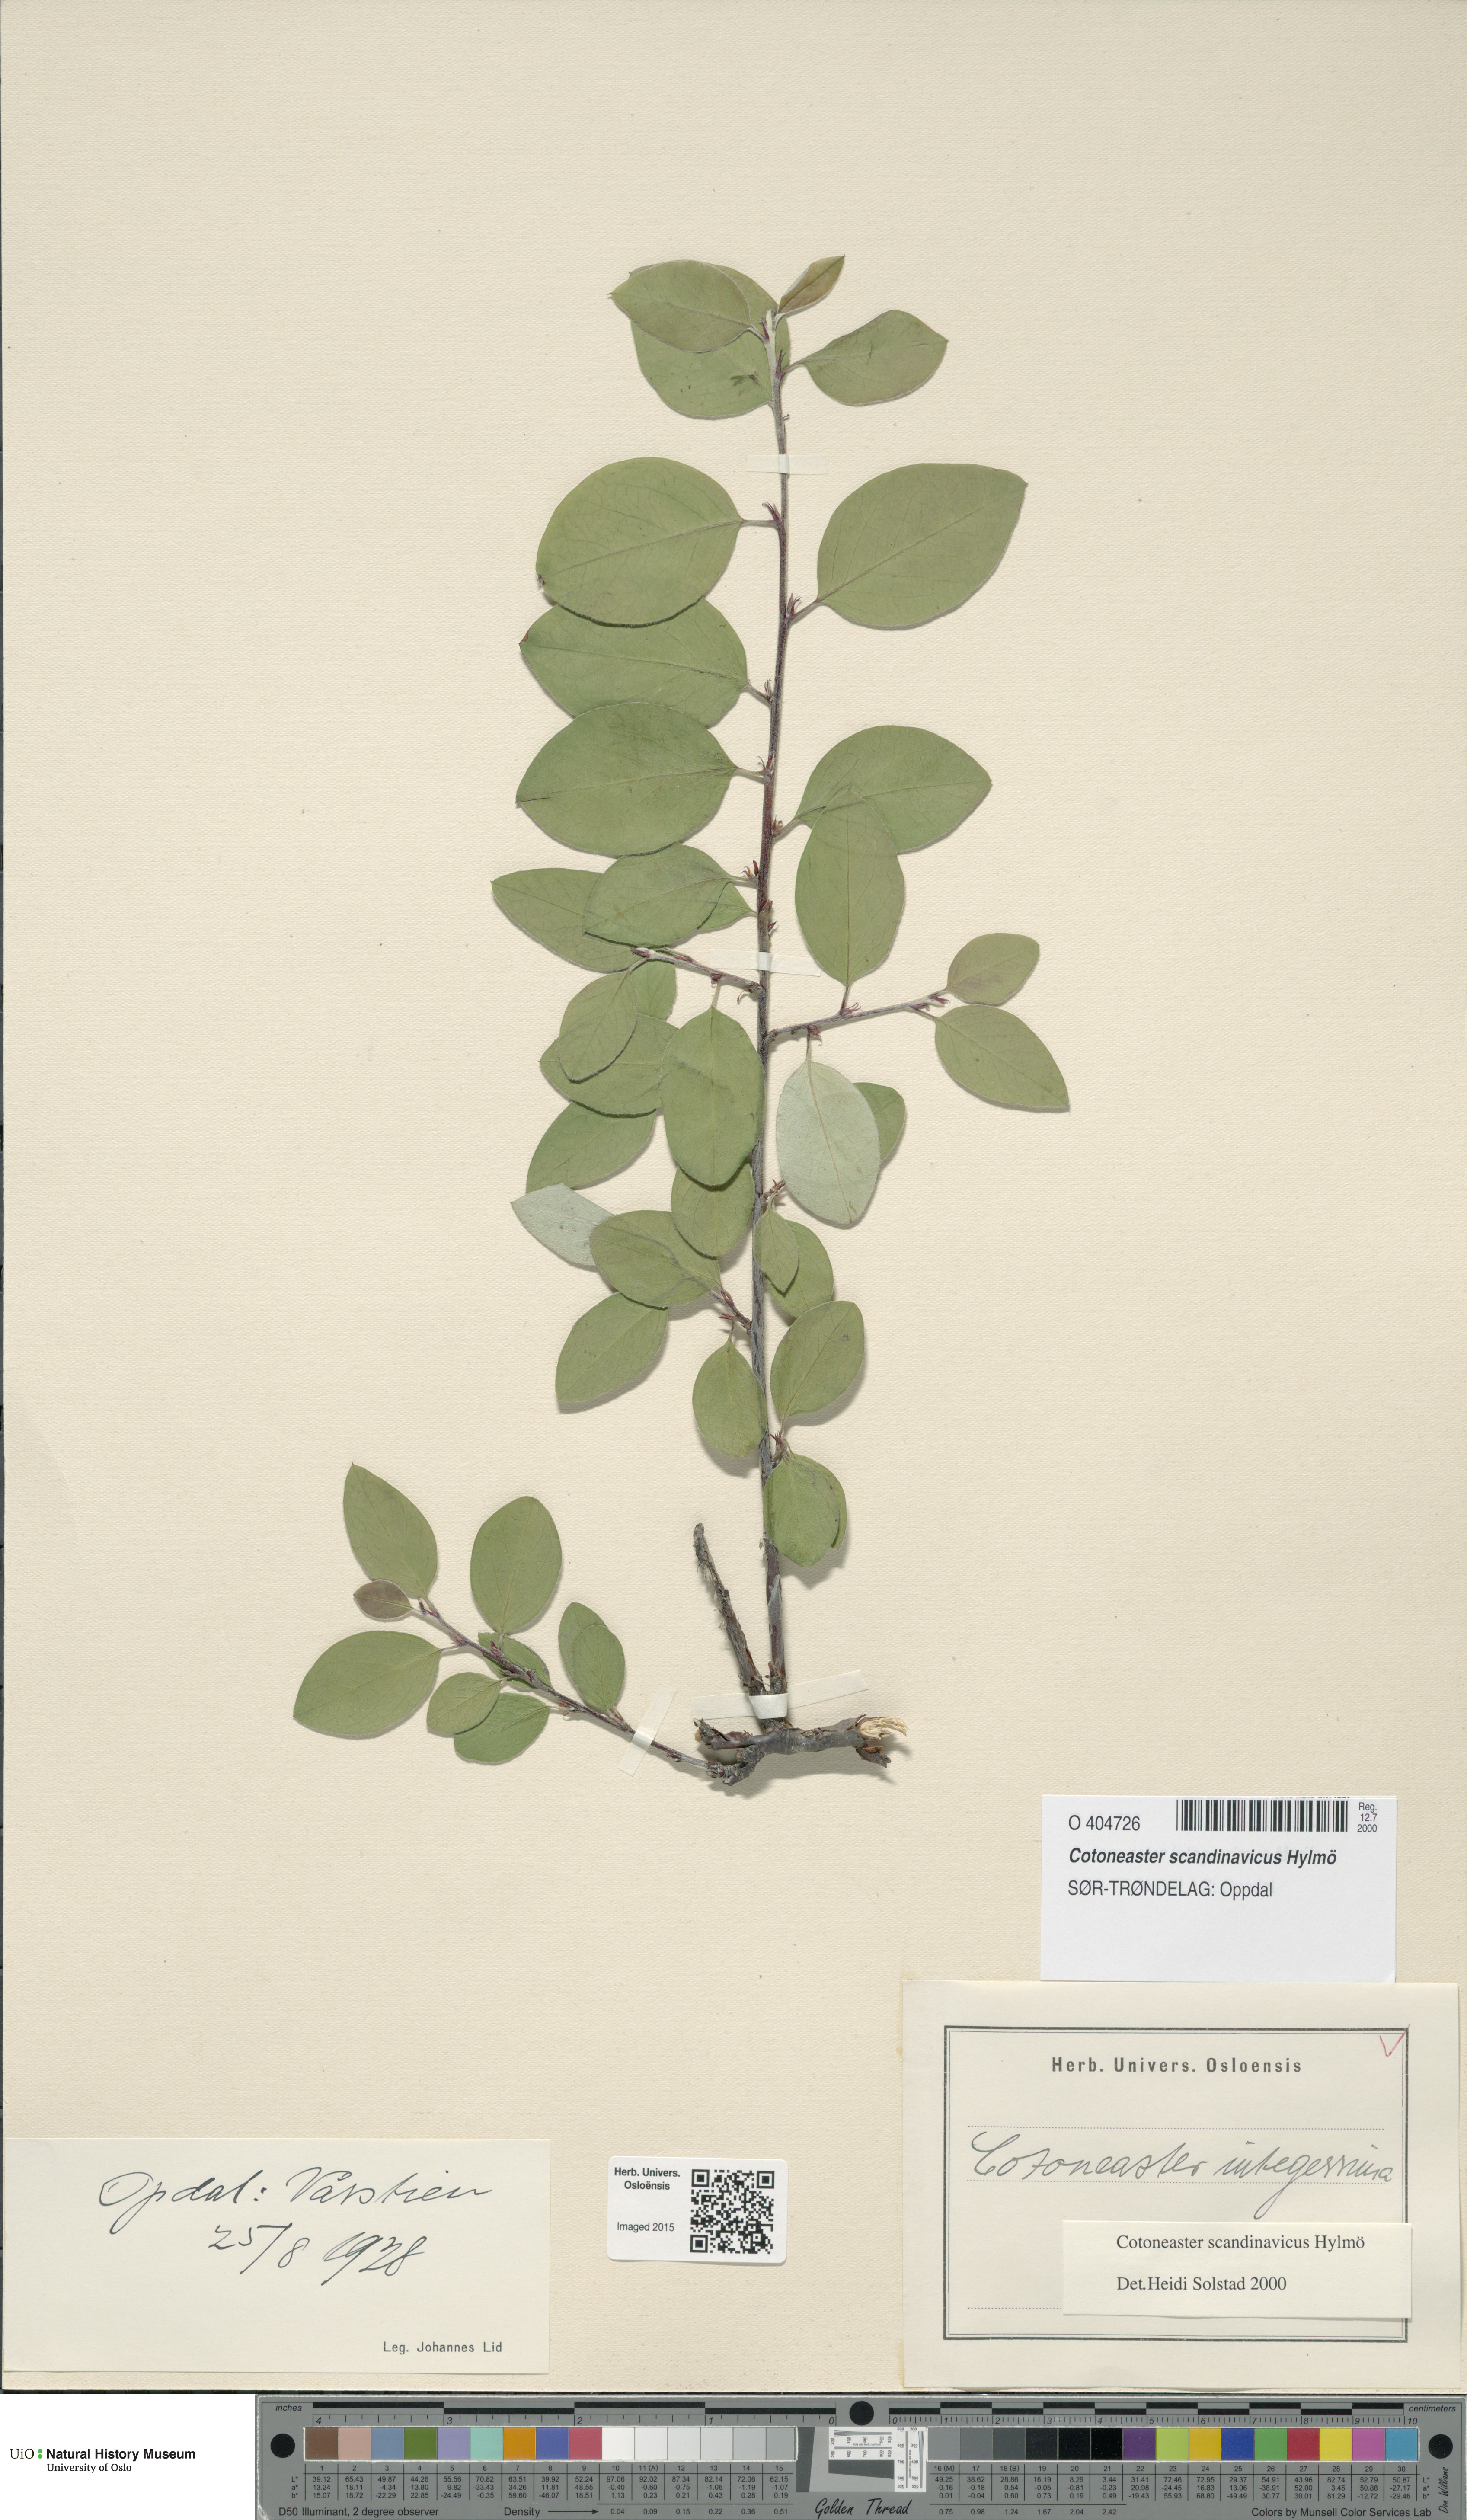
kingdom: Plantae
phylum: Tracheophyta
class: Magnoliopsida
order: Rosales
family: Rosaceae
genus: Cotoneaster
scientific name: Cotoneaster integerrimus
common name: Wild cotoneaster
